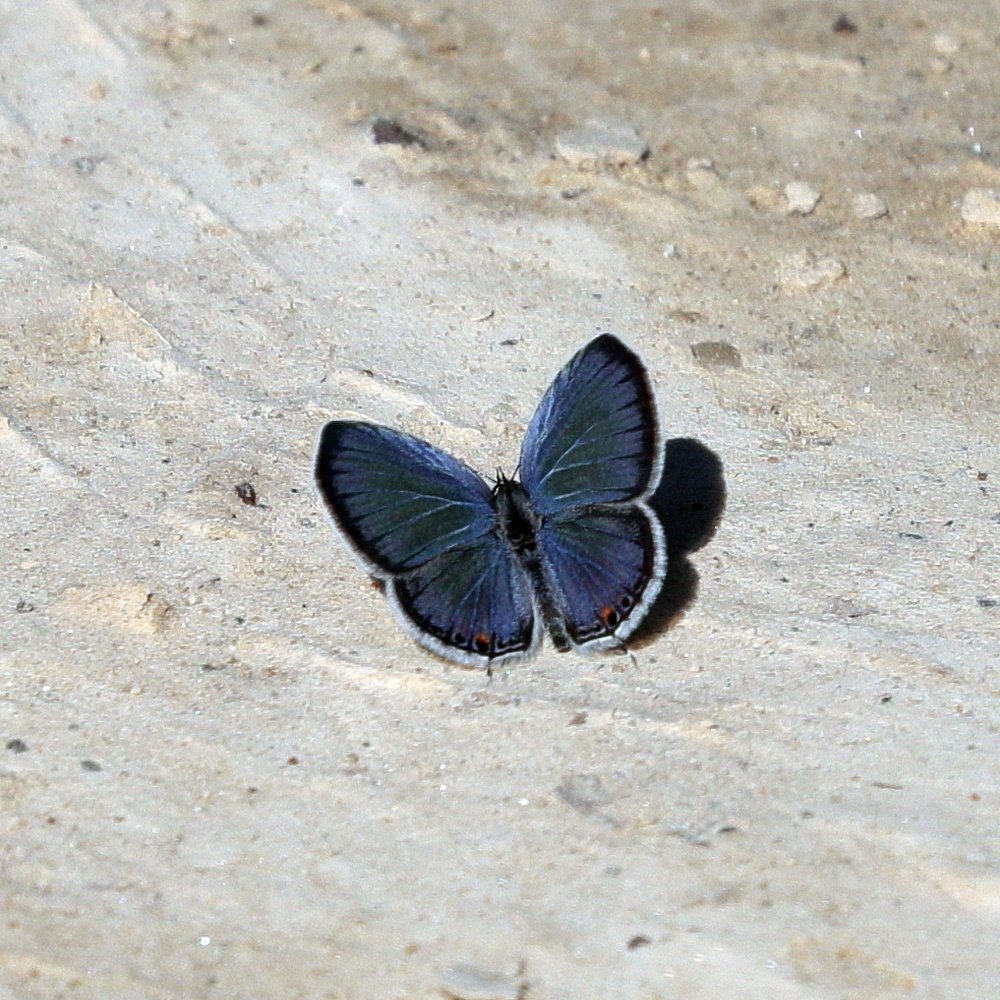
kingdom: Animalia
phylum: Arthropoda
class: Insecta
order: Lepidoptera
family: Lycaenidae
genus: Elkalyce
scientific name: Elkalyce comyntas
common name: Eastern Tailed-Blue
